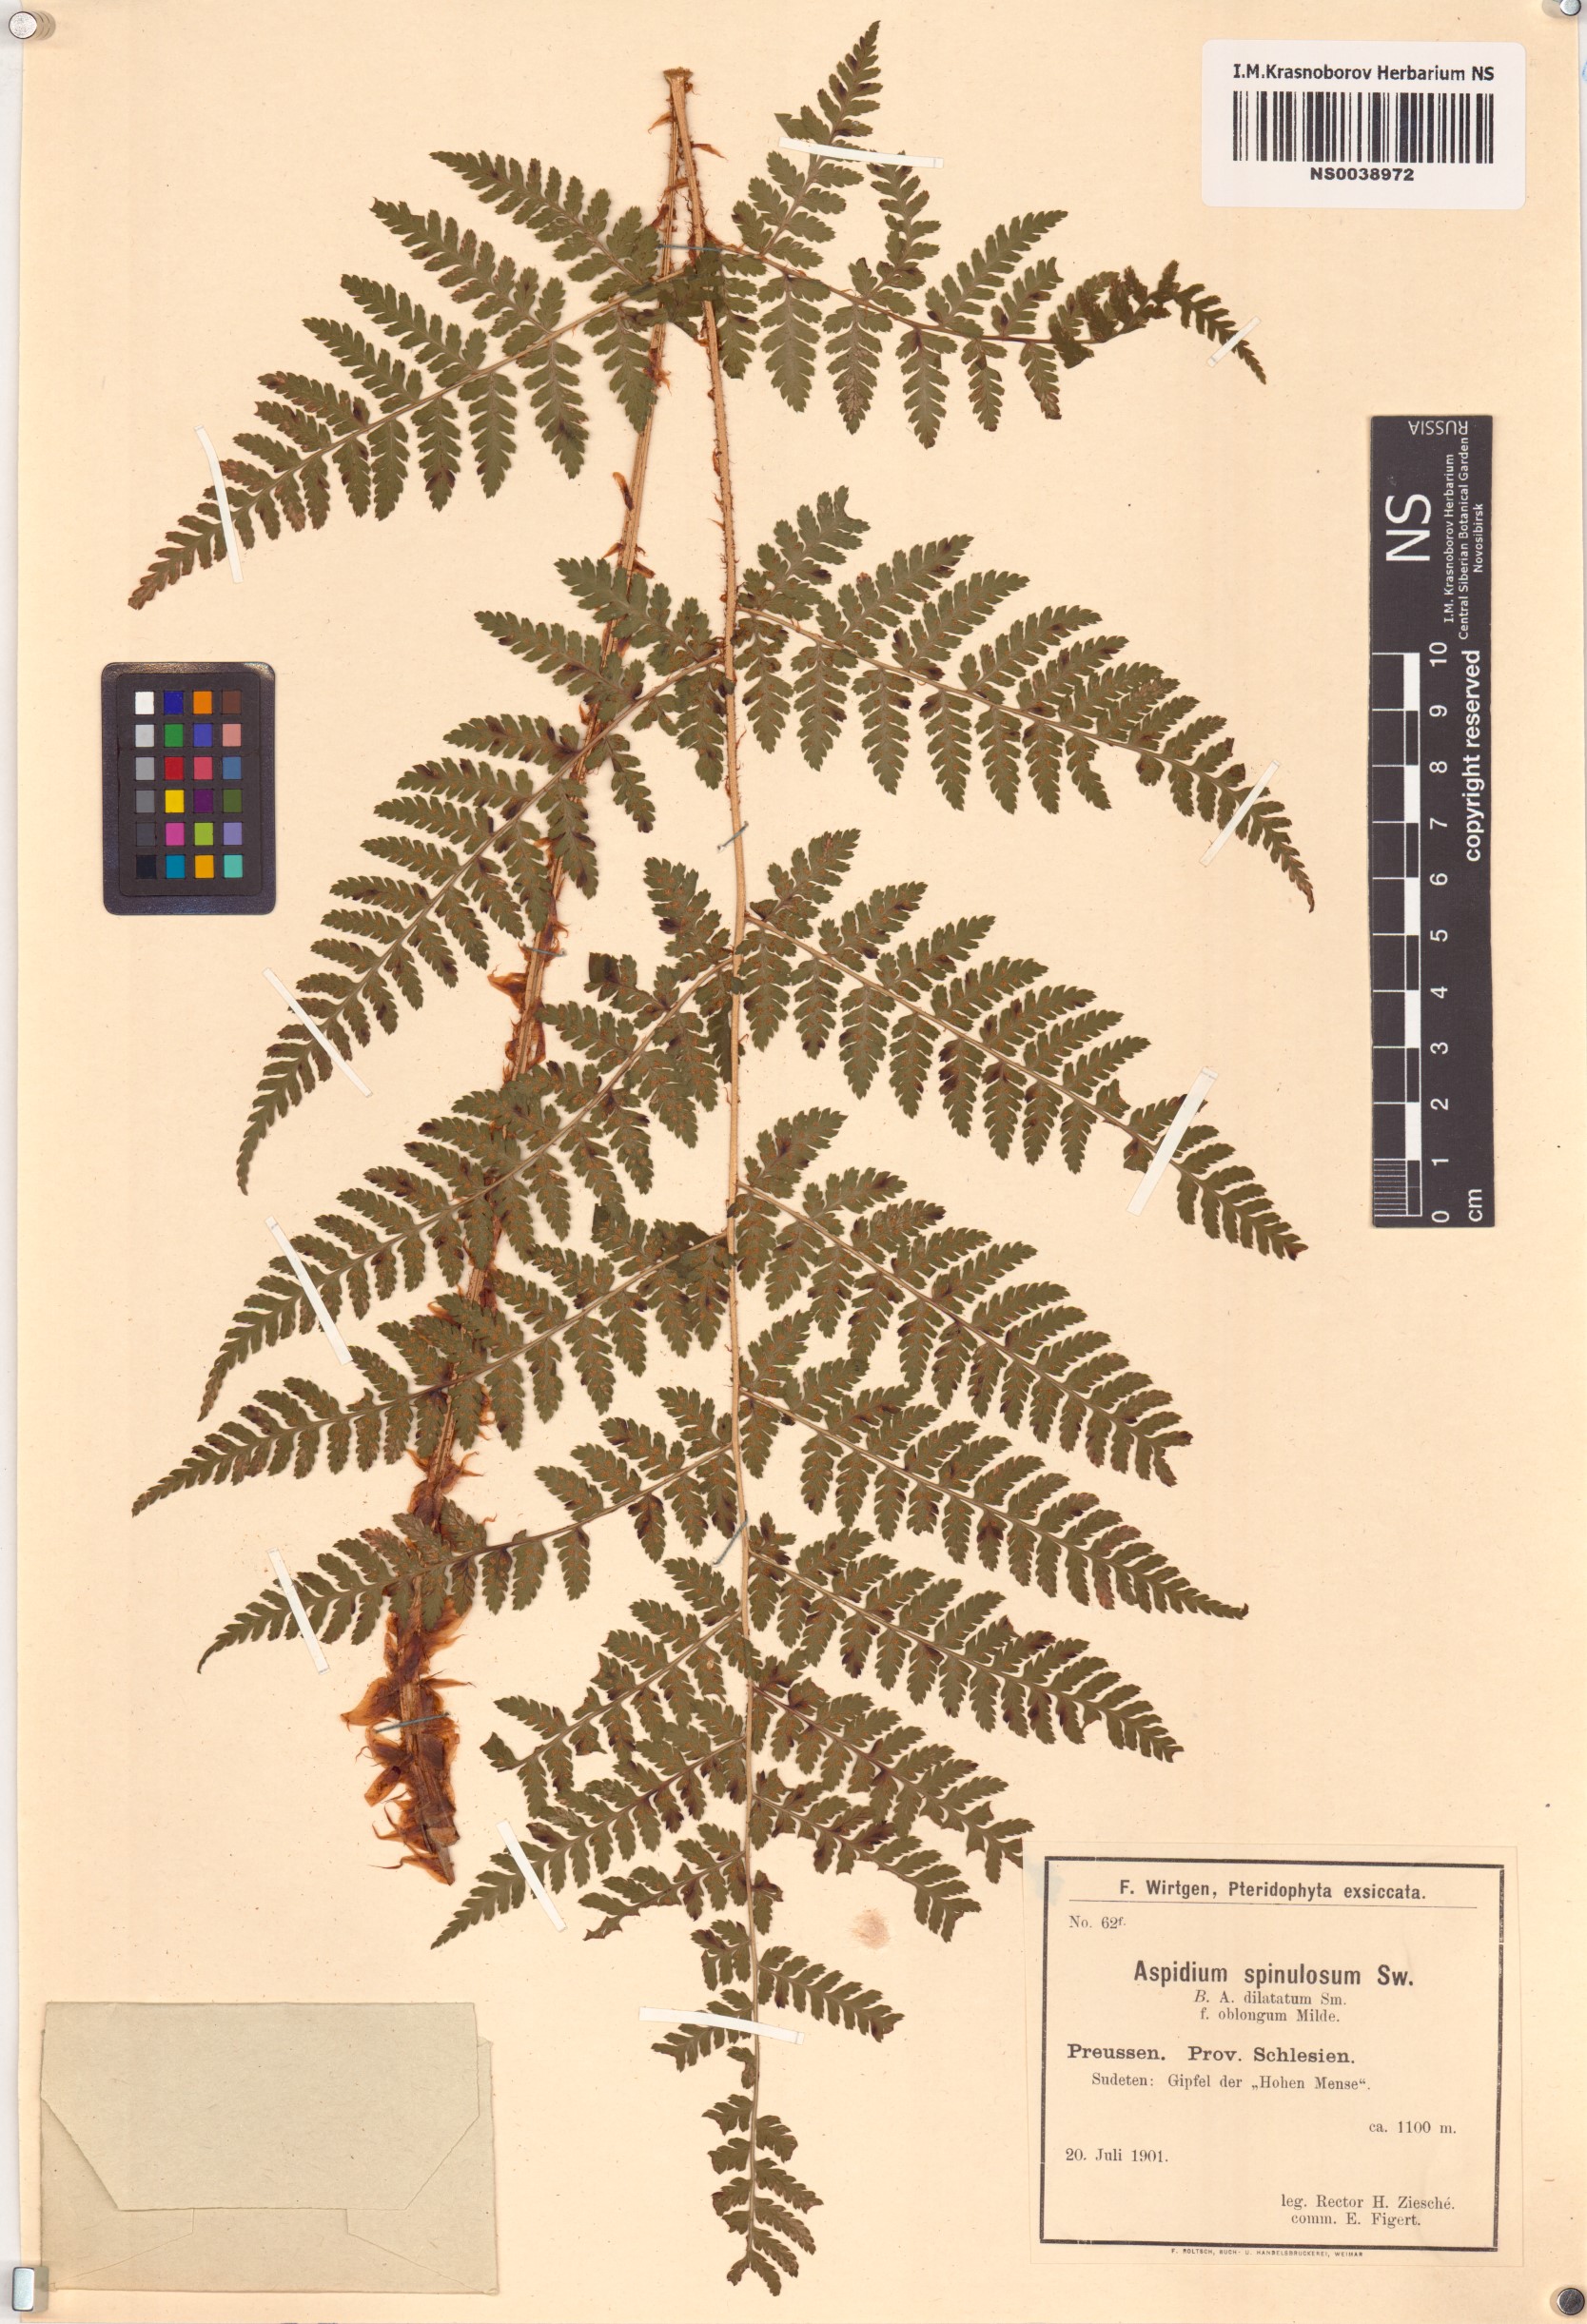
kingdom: Plantae
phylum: Tracheophyta
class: Polypodiopsida
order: Polypodiales
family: Dryopteridaceae
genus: Dryopteris
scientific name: Dryopteris carthusiana
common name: Narrow buckler-fern
